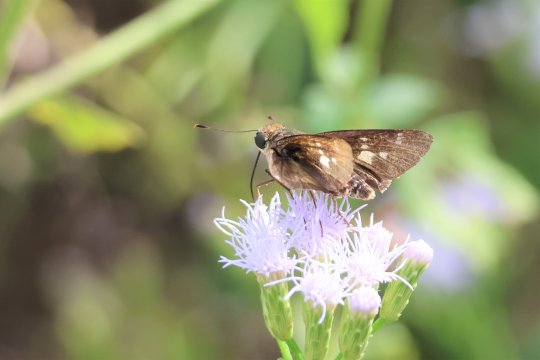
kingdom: Animalia
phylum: Arthropoda
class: Insecta
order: Lepidoptera
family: Hesperiidae
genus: Nyctelius
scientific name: Nyctelius nyctelius
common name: Violet-banded Skipper
